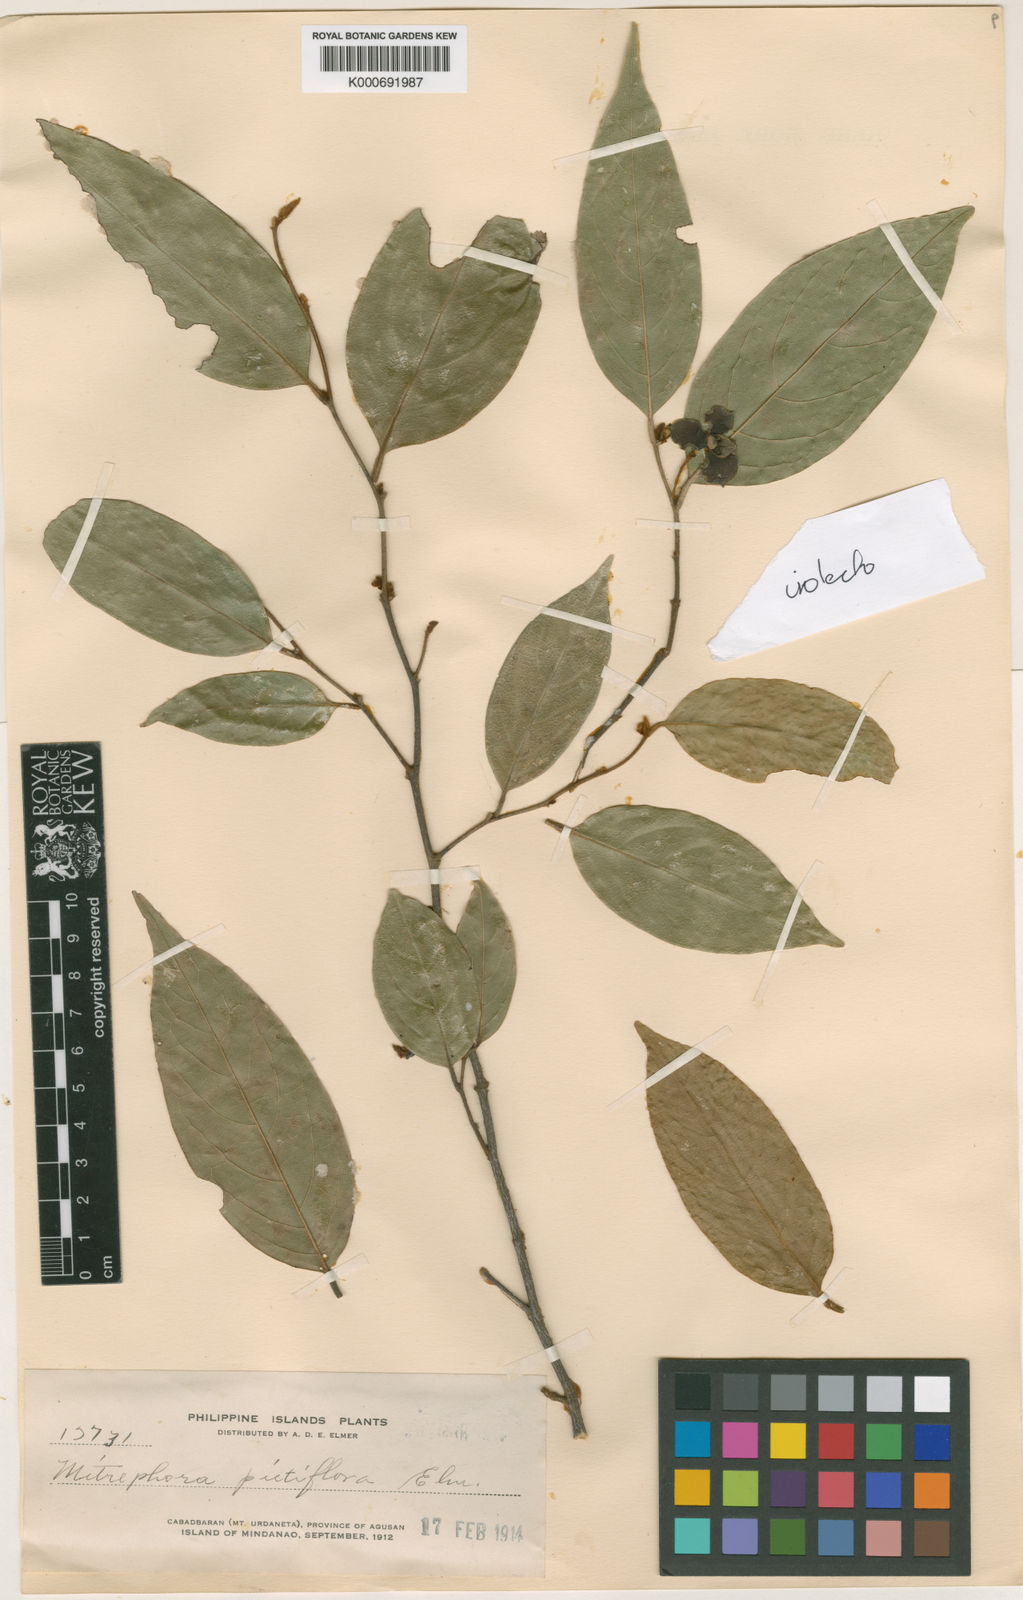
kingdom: Plantae
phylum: Tracheophyta
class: Magnoliopsida
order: Magnoliales
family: Annonaceae
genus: Mitrephora
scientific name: Mitrephora pictiflora
